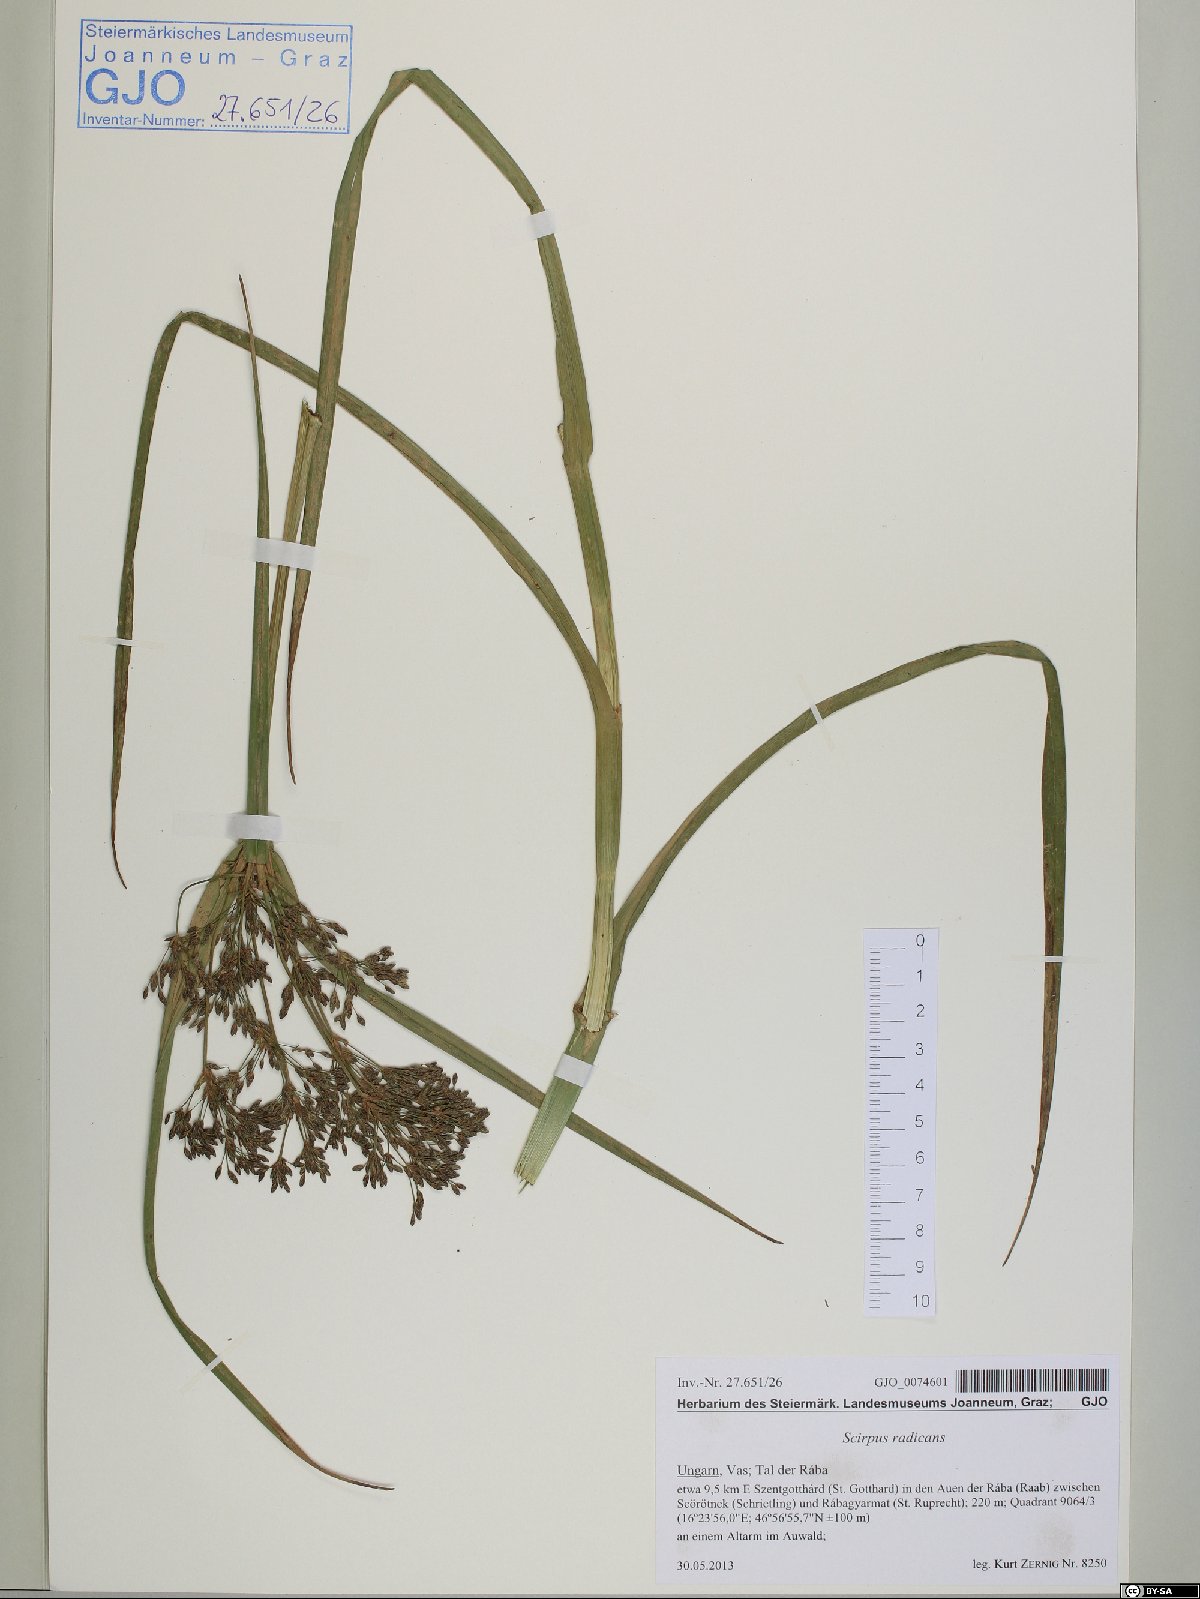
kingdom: Plantae
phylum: Tracheophyta
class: Liliopsida
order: Poales
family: Cyperaceae
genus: Scirpus
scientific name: Scirpus radicans
